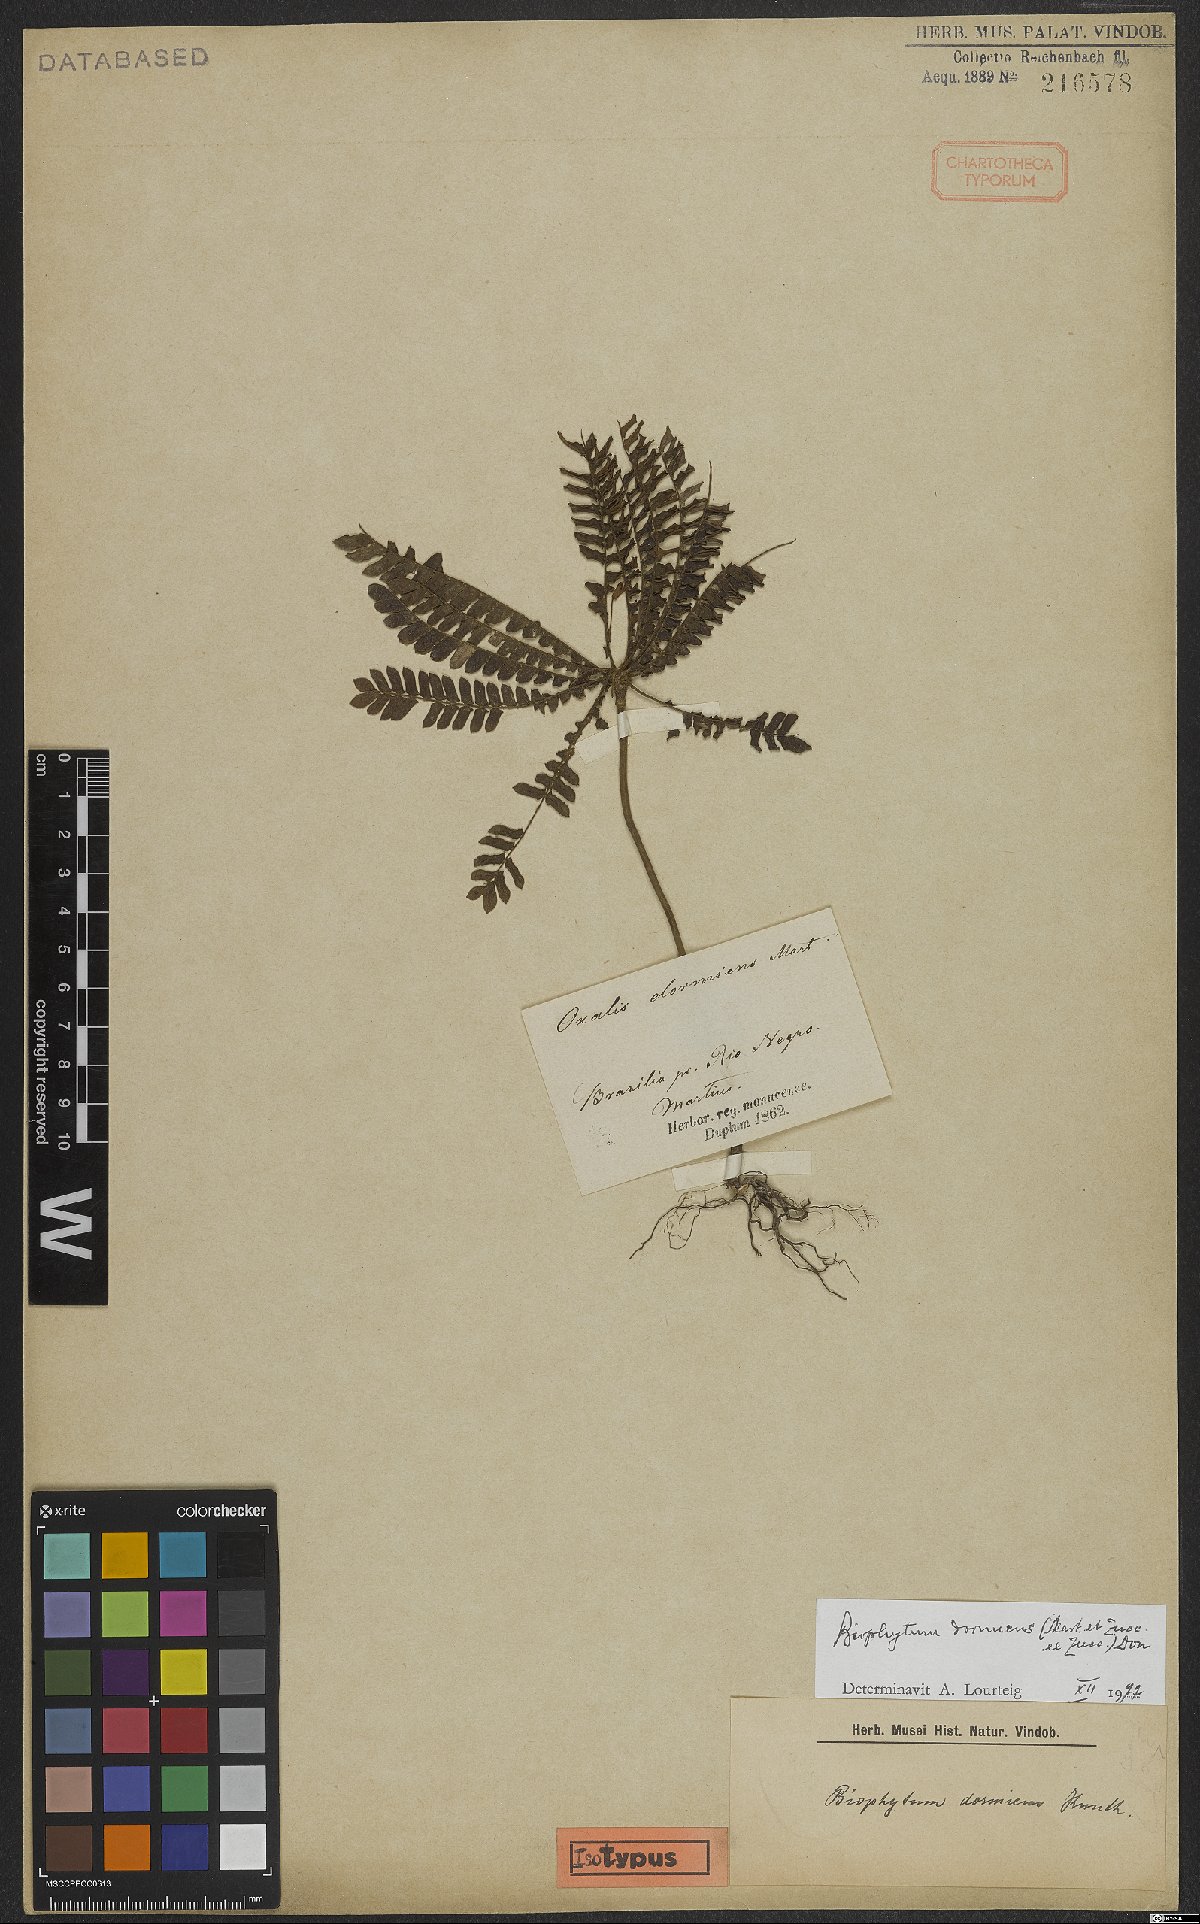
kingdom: Plantae
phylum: Tracheophyta
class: Magnoliopsida
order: Oxalidales
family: Oxalidaceae
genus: Biophytum
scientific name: Biophytum dormiens
